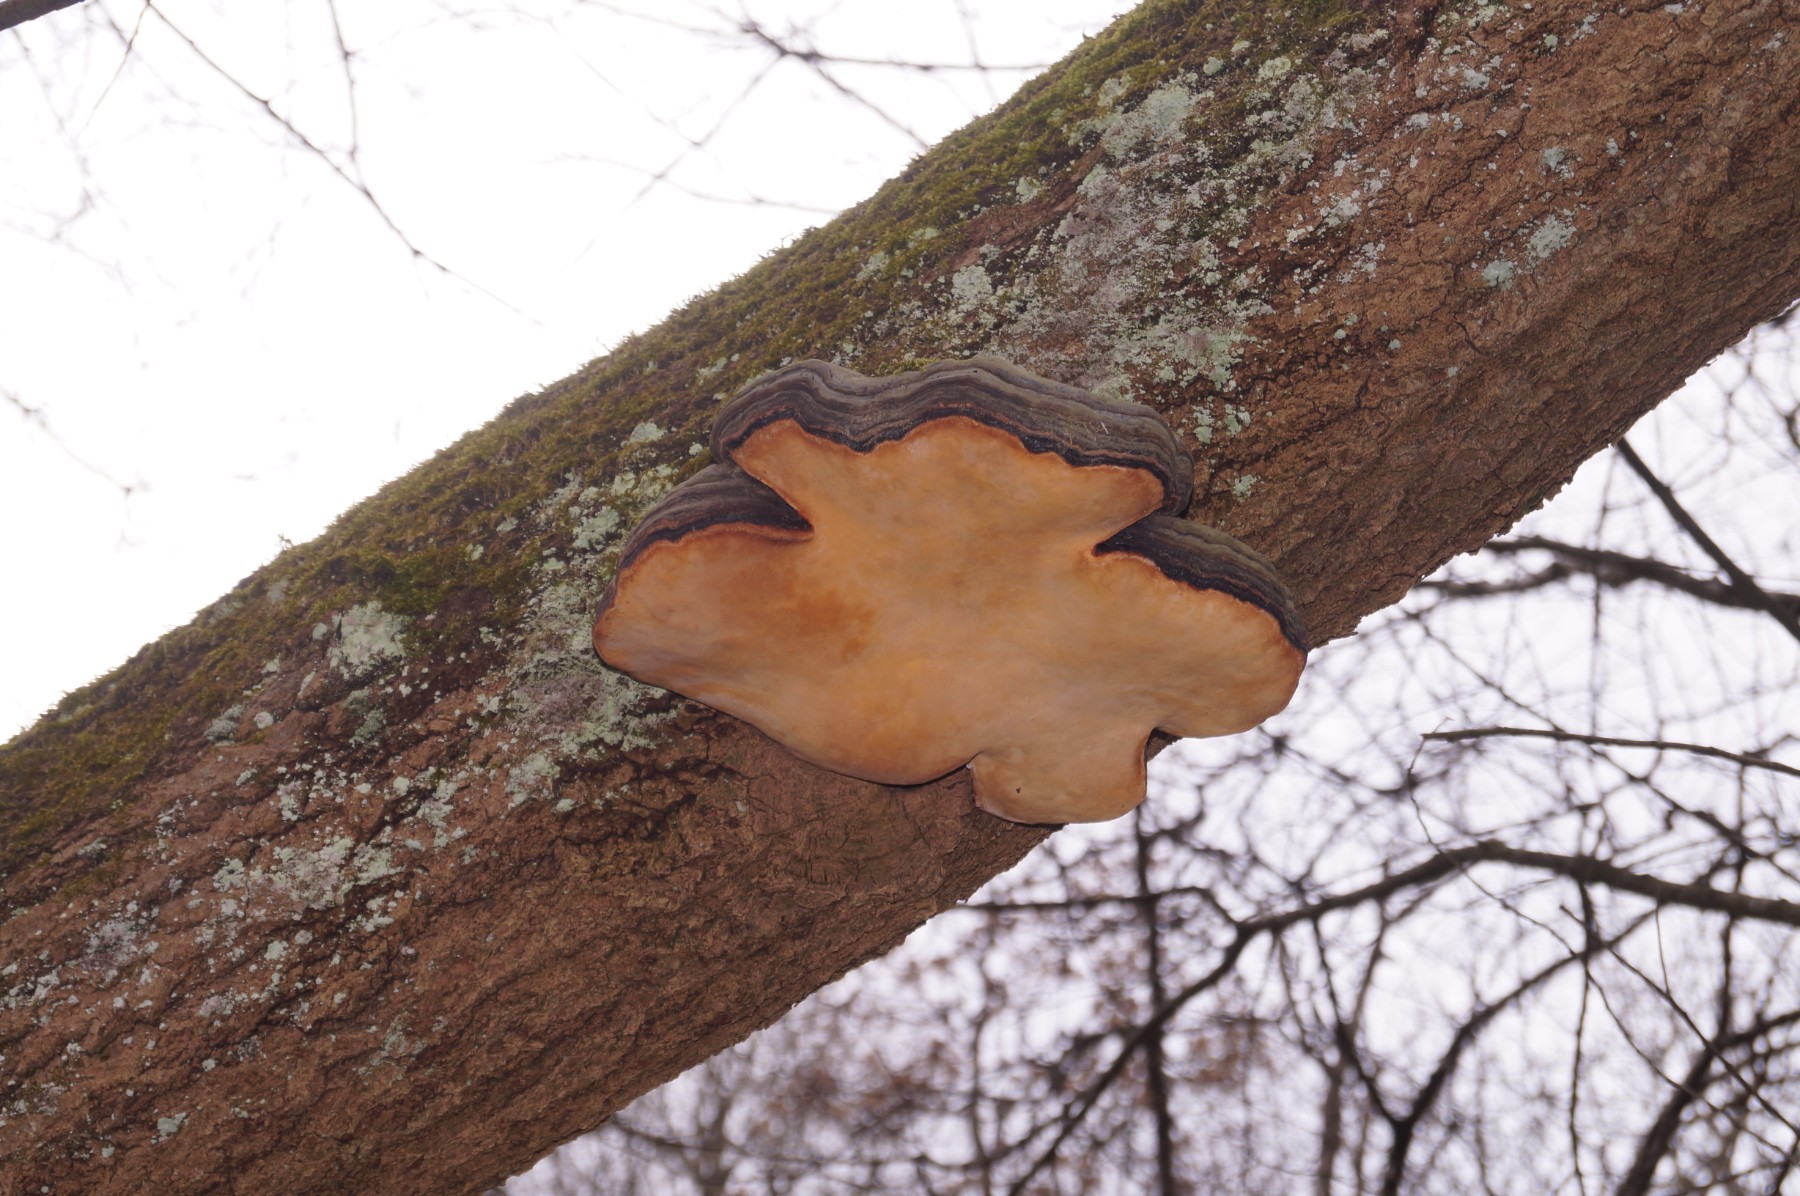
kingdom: Fungi
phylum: Basidiomycota
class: Agaricomycetes
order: Polyporales
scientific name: Polyporales
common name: poresvampordenen
